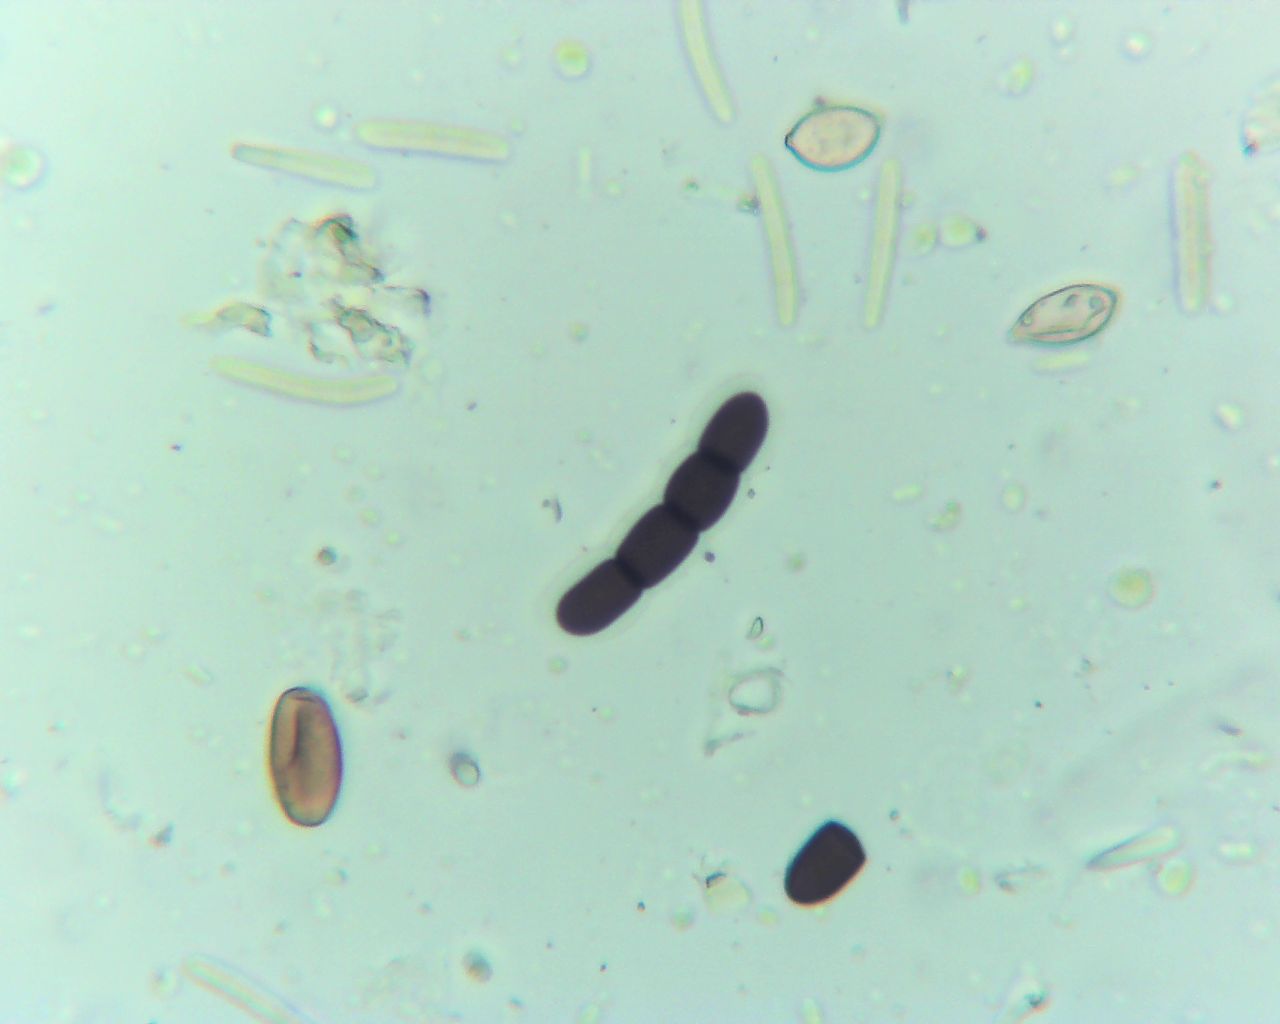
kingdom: Fungi
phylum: Ascomycota
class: Dothideomycetes
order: Pleosporales
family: Sporormiaceae
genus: Sporormiella
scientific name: Sporormiella intermedia
